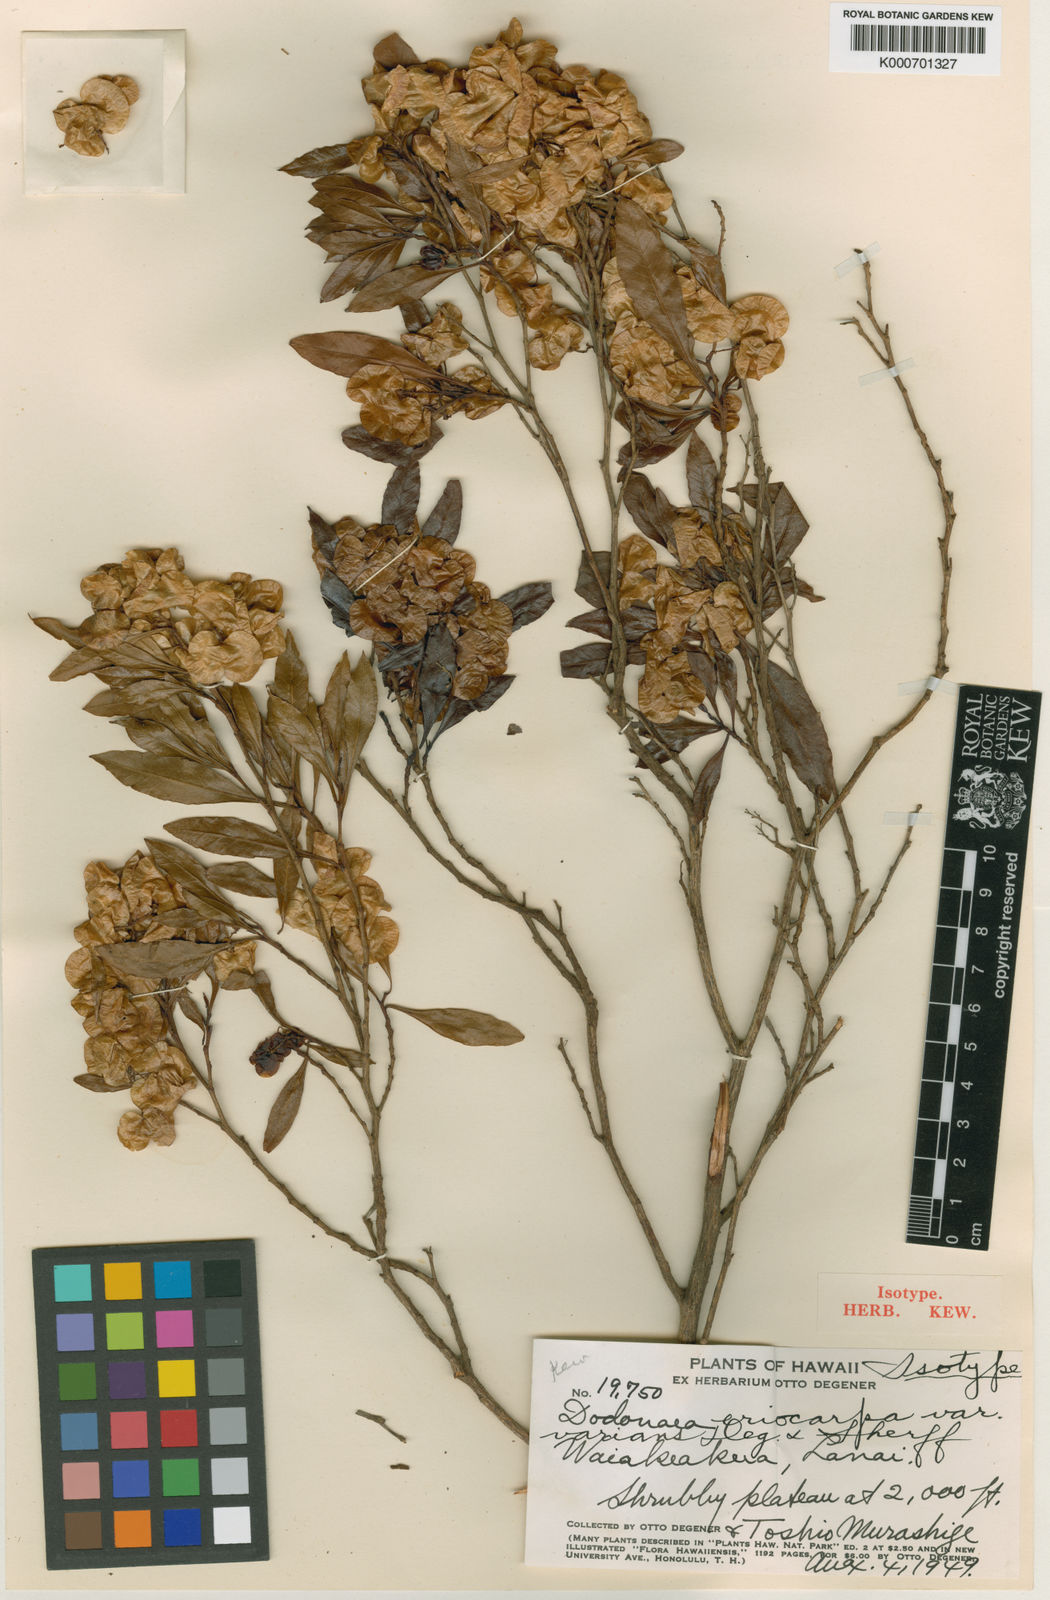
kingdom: Plantae
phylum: Tracheophyta
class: Magnoliopsida
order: Sapindales
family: Sapindaceae
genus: Dodonaea
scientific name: Dodonaea viscosa
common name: Hopbush
